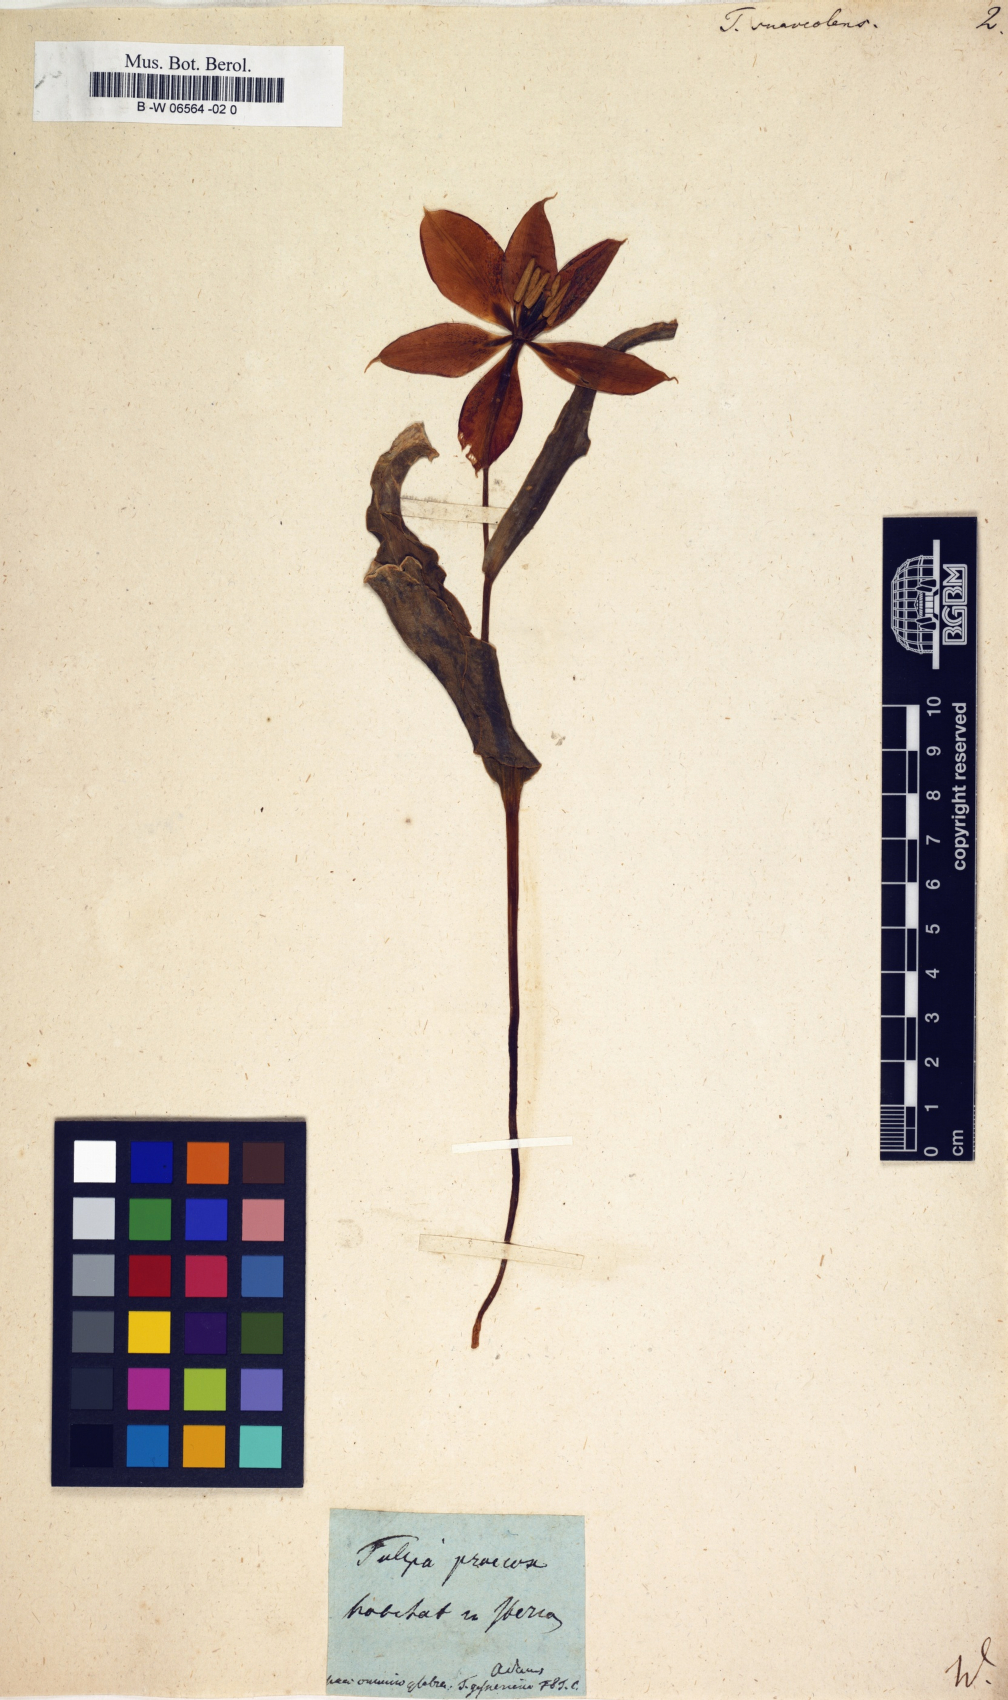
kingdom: Plantae
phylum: Tracheophyta
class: Liliopsida
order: Liliales
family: Liliaceae
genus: Tulipa
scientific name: Tulipa suaveolens
